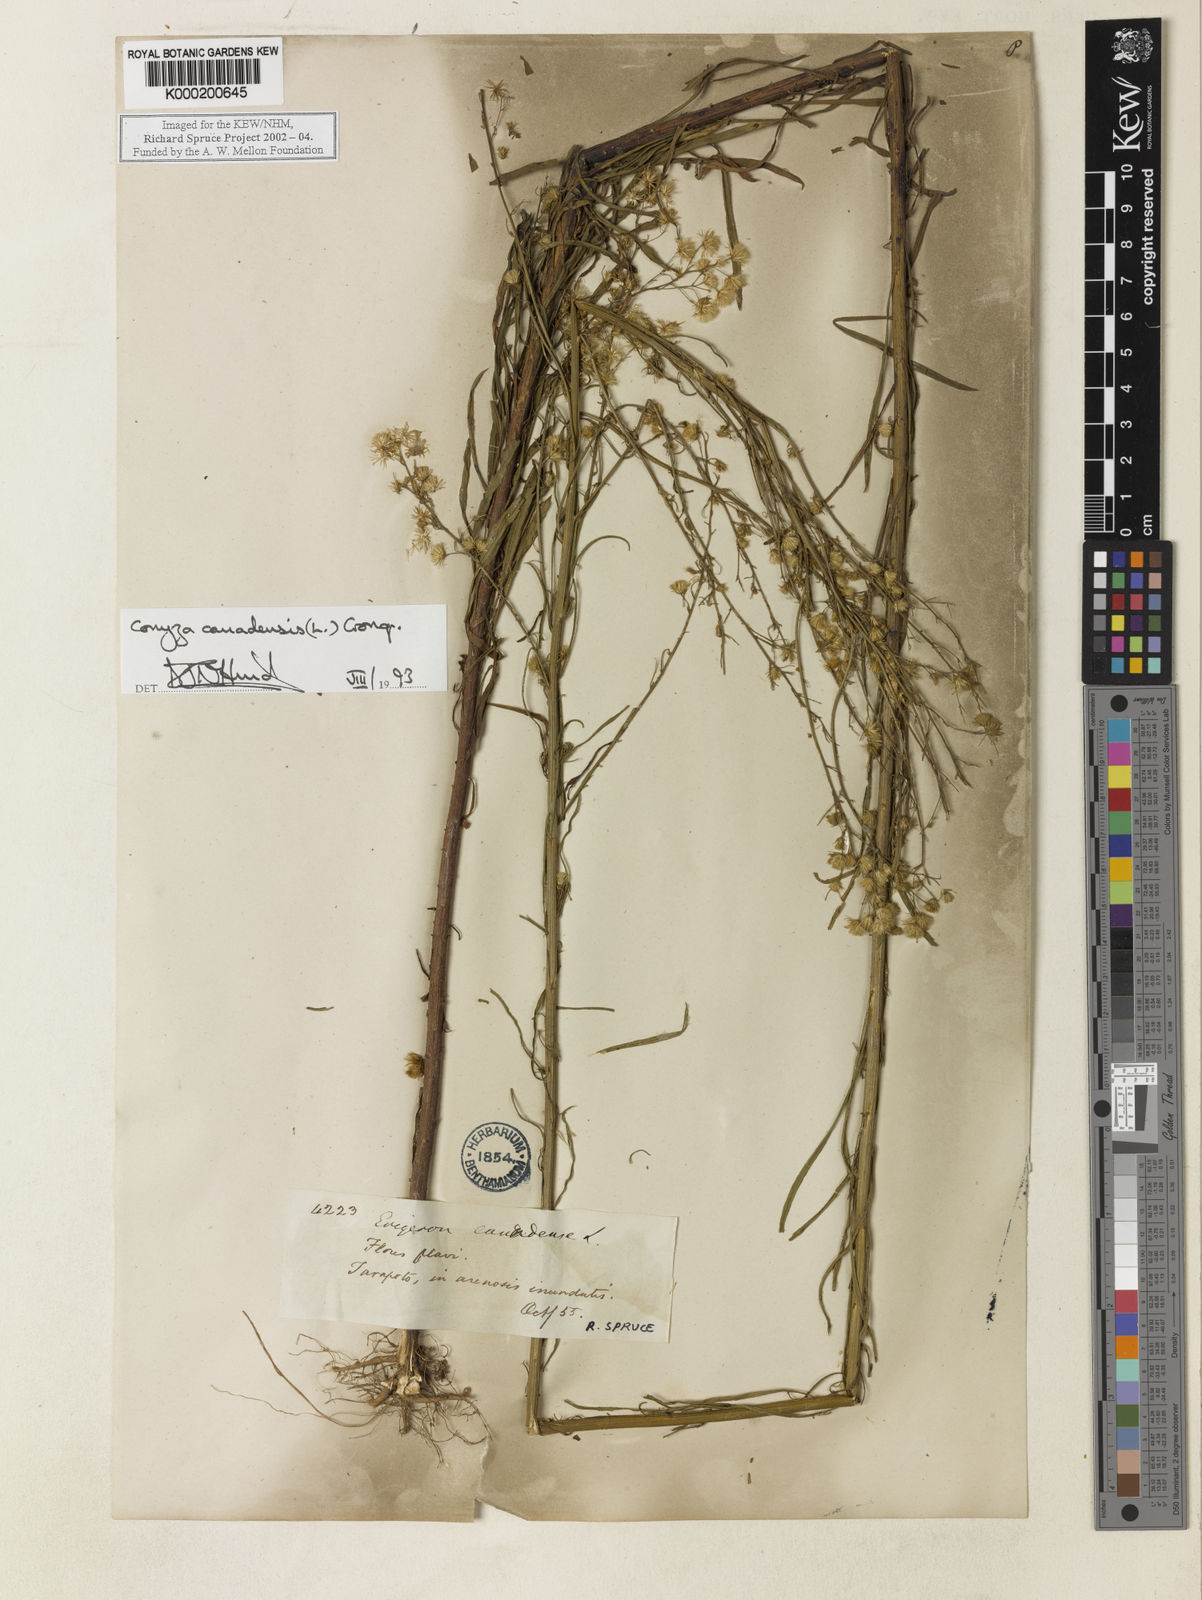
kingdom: Plantae
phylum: Tracheophyta
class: Magnoliopsida
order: Asterales
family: Asteraceae
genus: Erigeron
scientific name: Erigeron canadensis
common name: Canadian fleabane
